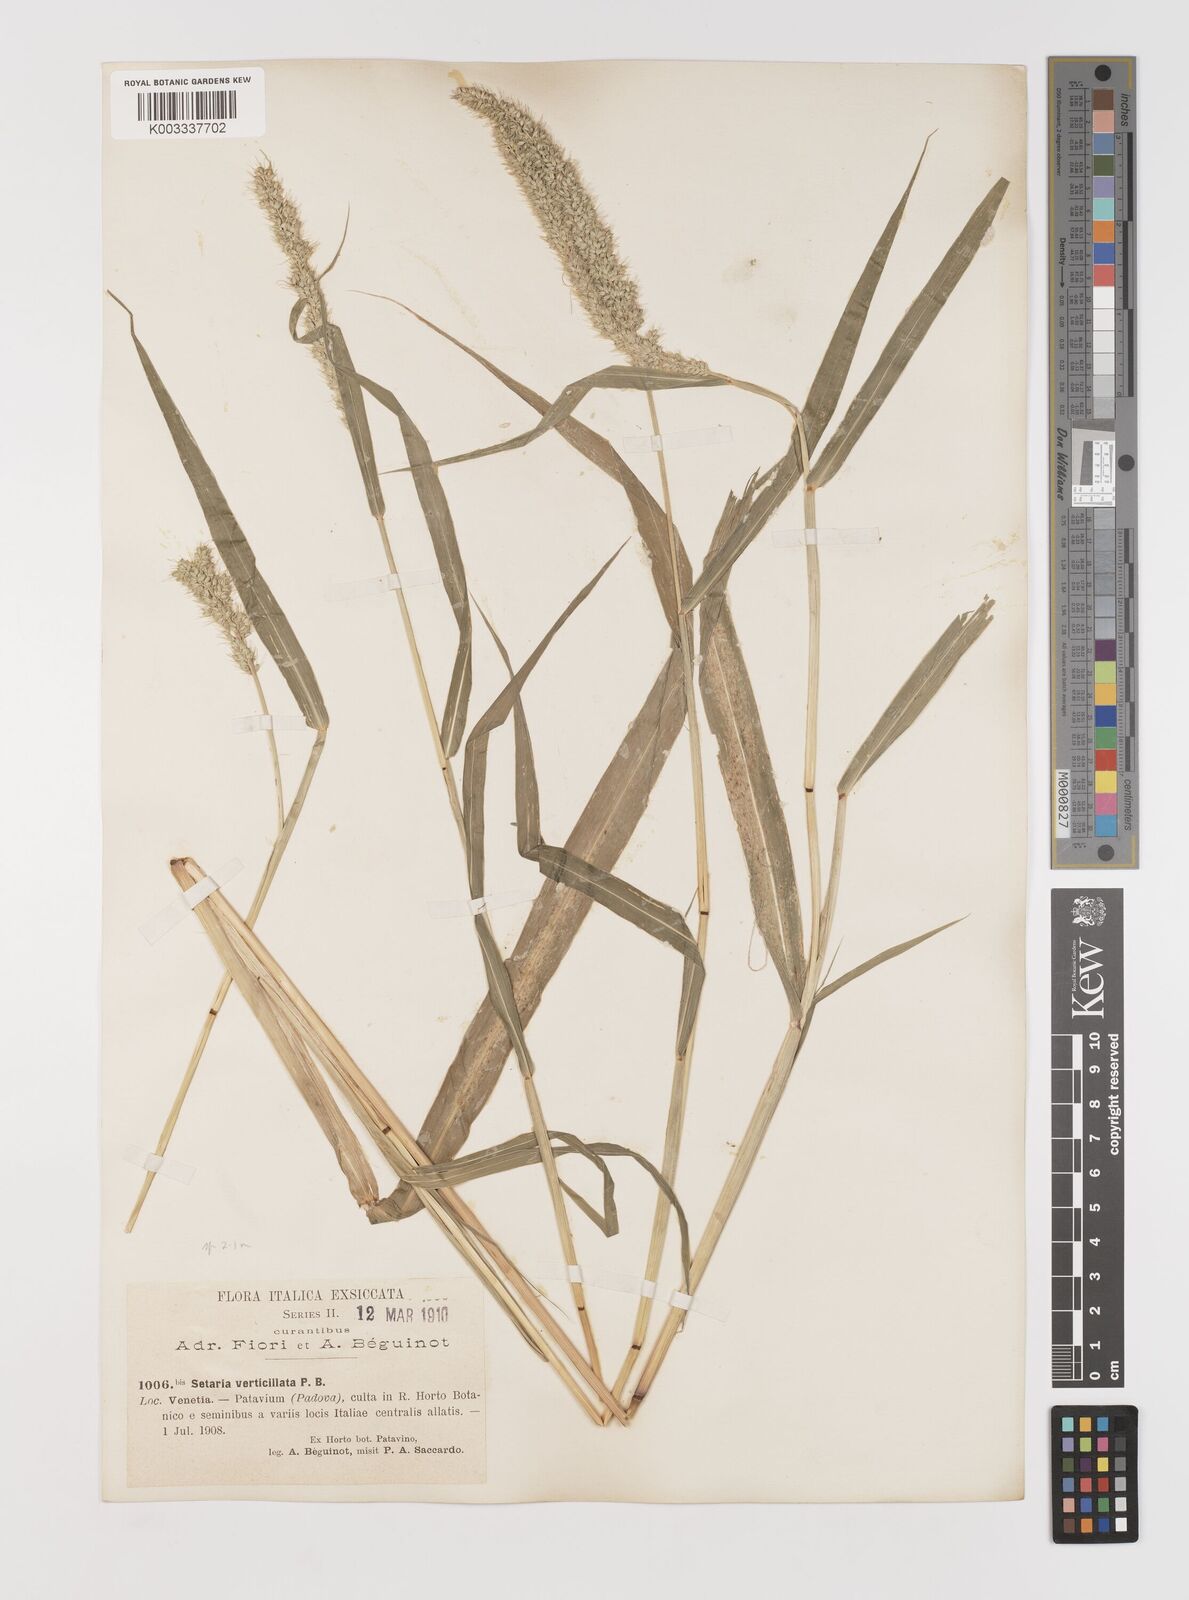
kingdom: Plantae
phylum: Tracheophyta
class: Liliopsida
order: Poales
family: Poaceae
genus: Setaria
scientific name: Setaria verticillata
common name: Hooked bristlegrass
